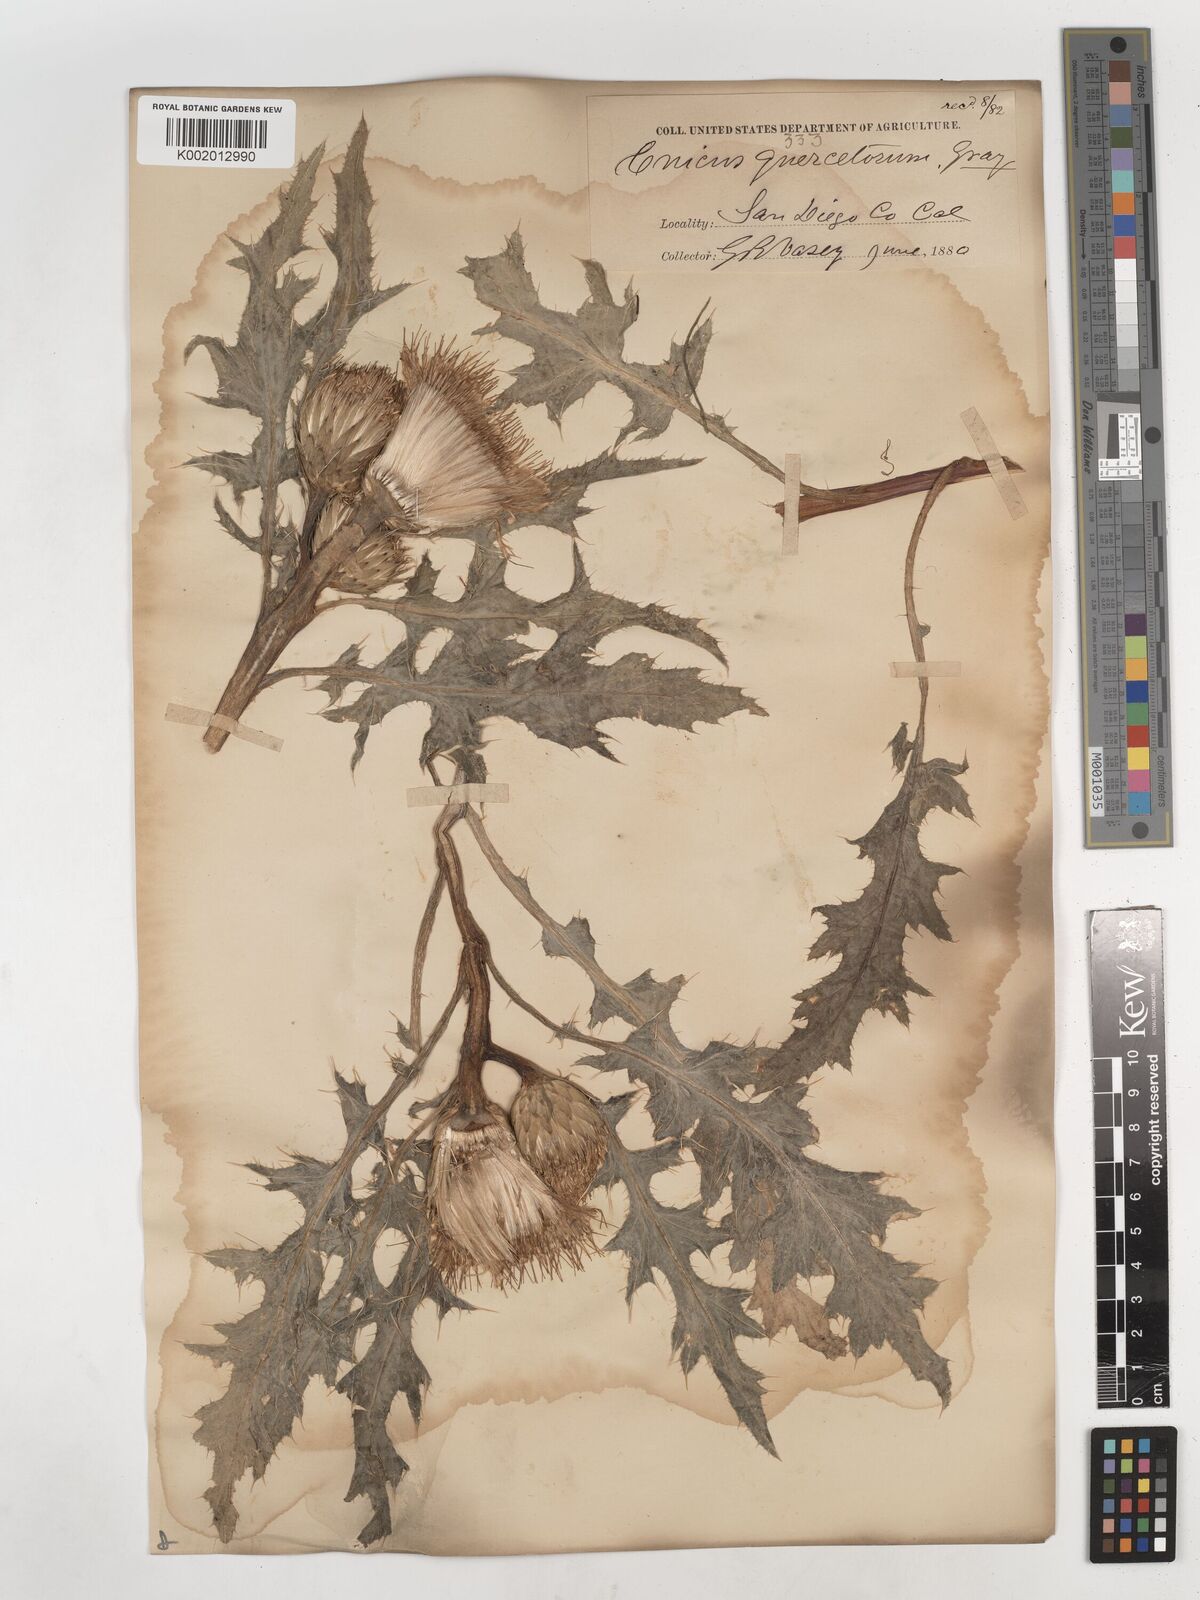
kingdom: Plantae
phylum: Tracheophyta
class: Magnoliopsida
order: Asterales
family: Asteraceae
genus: Cirsium
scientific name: Cirsium quercetorum
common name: Alameda county thistle
